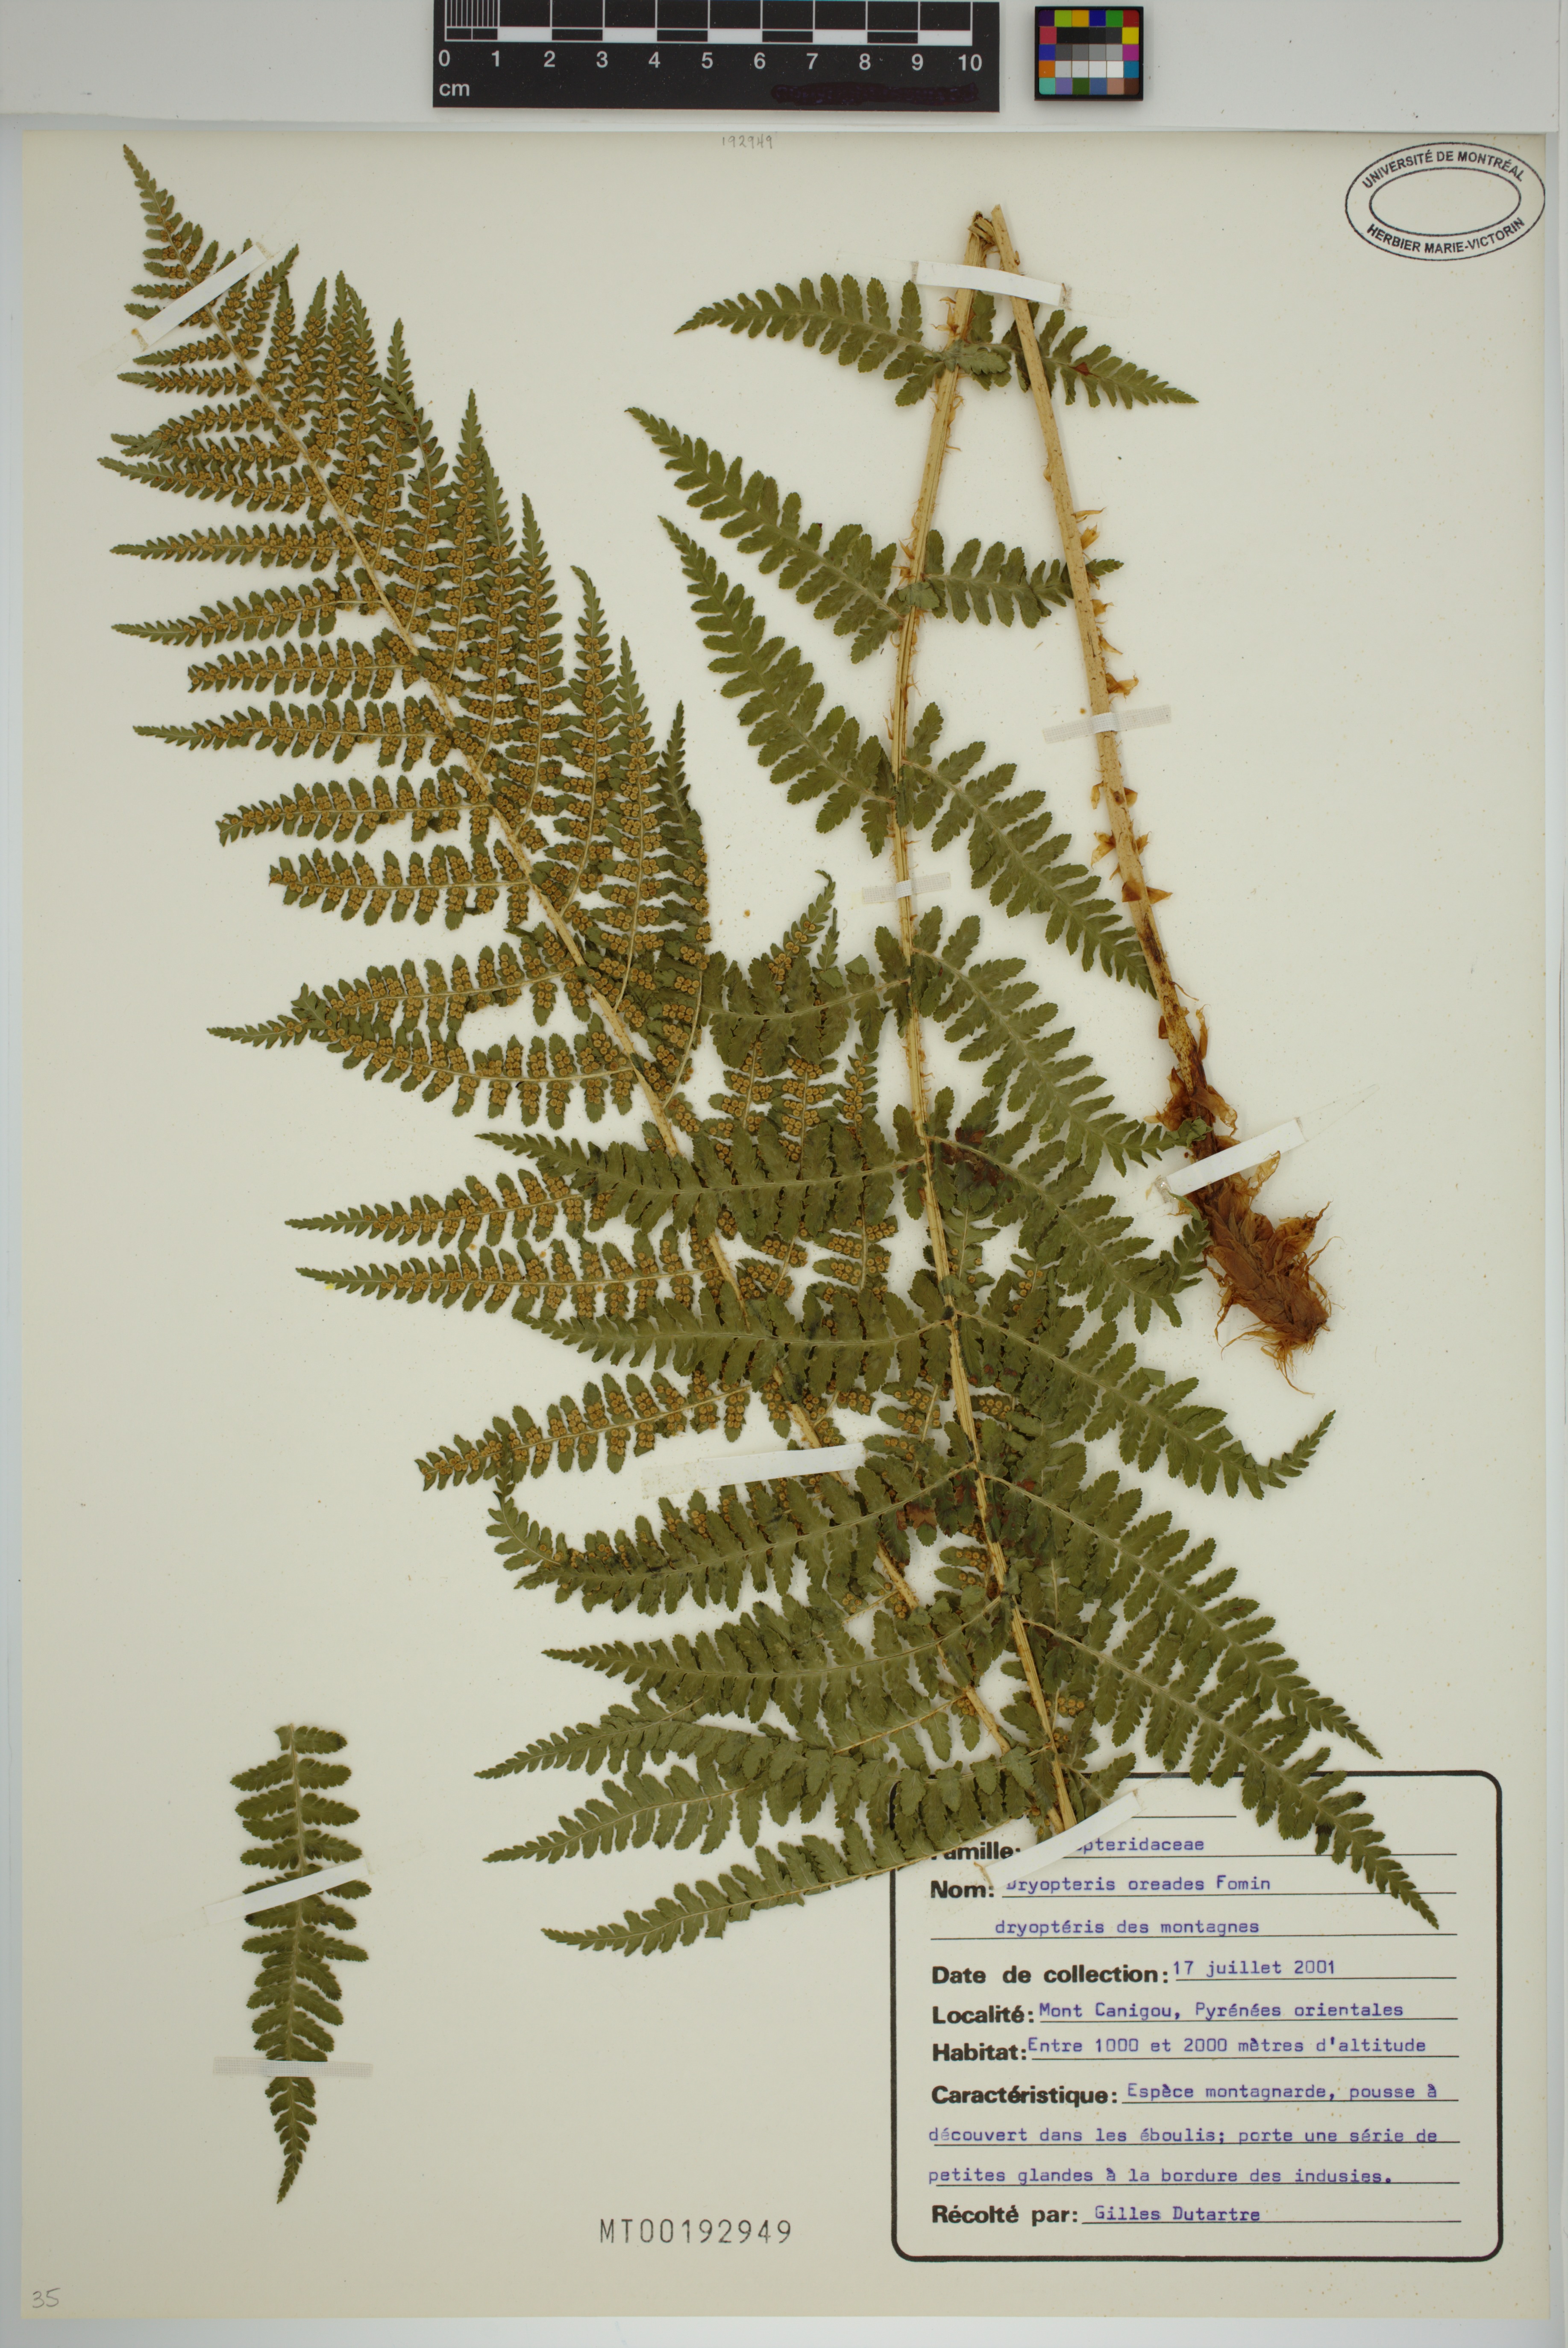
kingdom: Plantae
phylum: Tracheophyta
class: Polypodiopsida
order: Polypodiales
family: Dryopteridaceae
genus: Dryopteris
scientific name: Dryopteris oreades
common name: Mountain male fern
